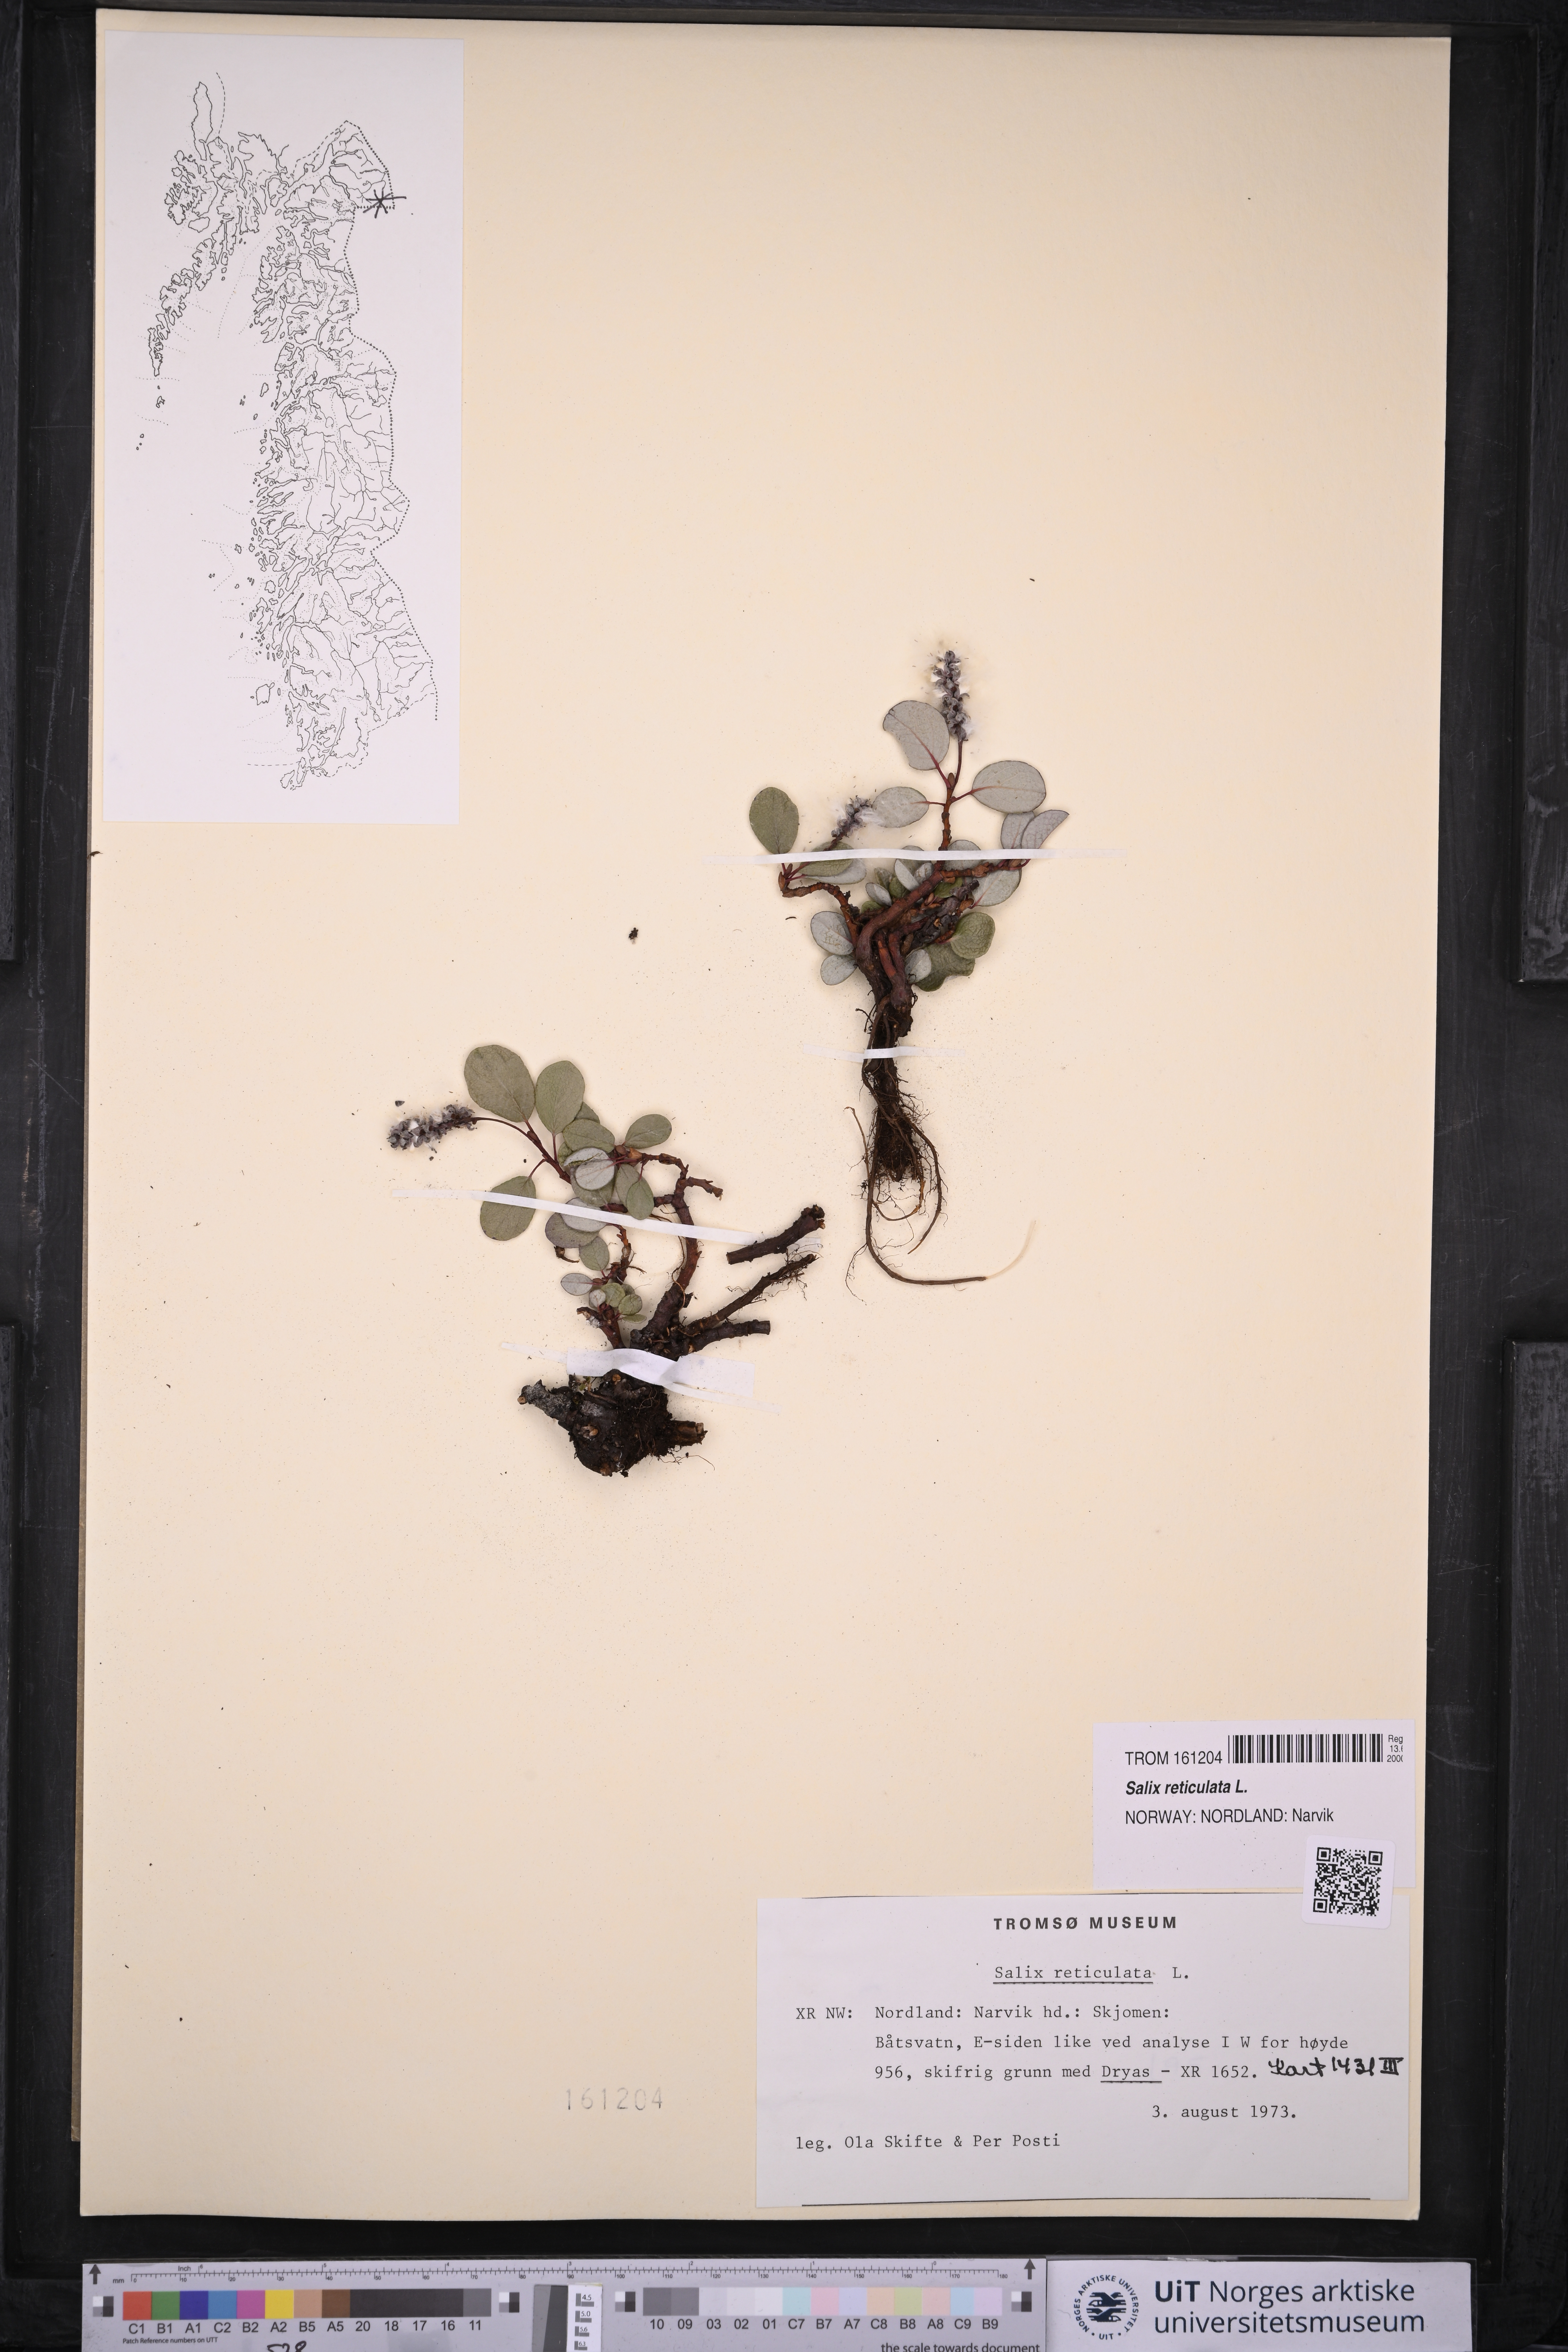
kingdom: Plantae
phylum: Tracheophyta
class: Magnoliopsida
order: Malpighiales
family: Salicaceae
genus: Salix
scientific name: Salix reticulata
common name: Net-leaved willow
